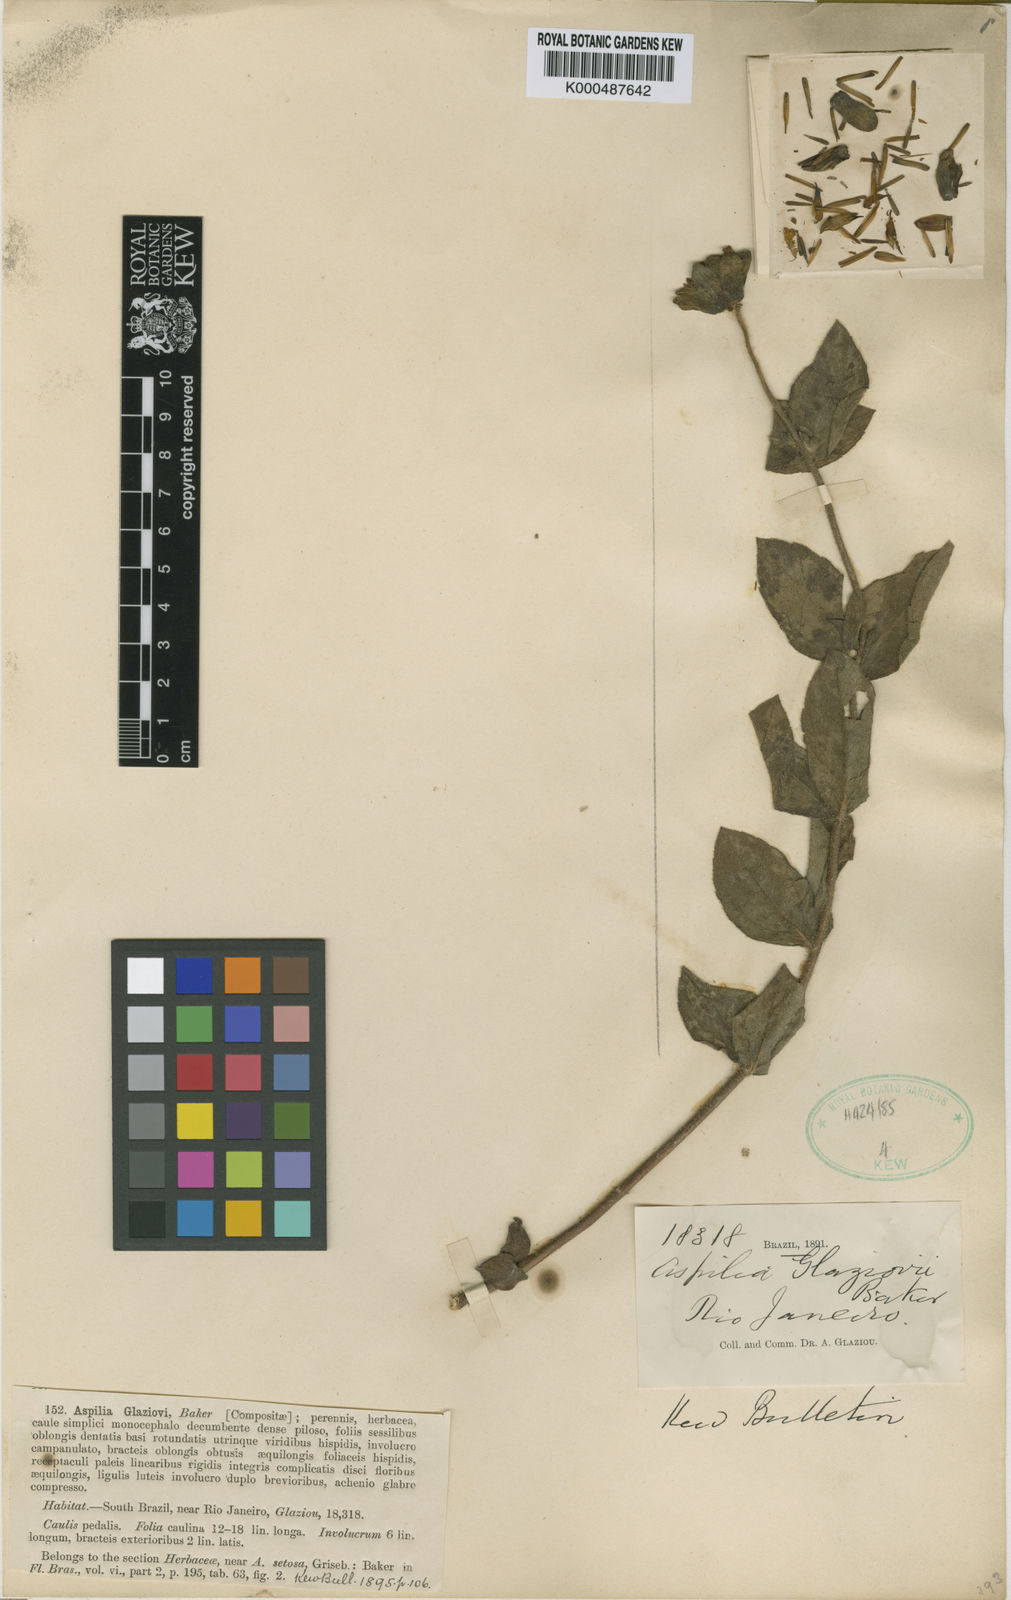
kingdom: Plantae
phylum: Tracheophyta
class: Magnoliopsida
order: Asterales
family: Asteraceae
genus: Aspilia
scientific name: Aspilia glaziovii
